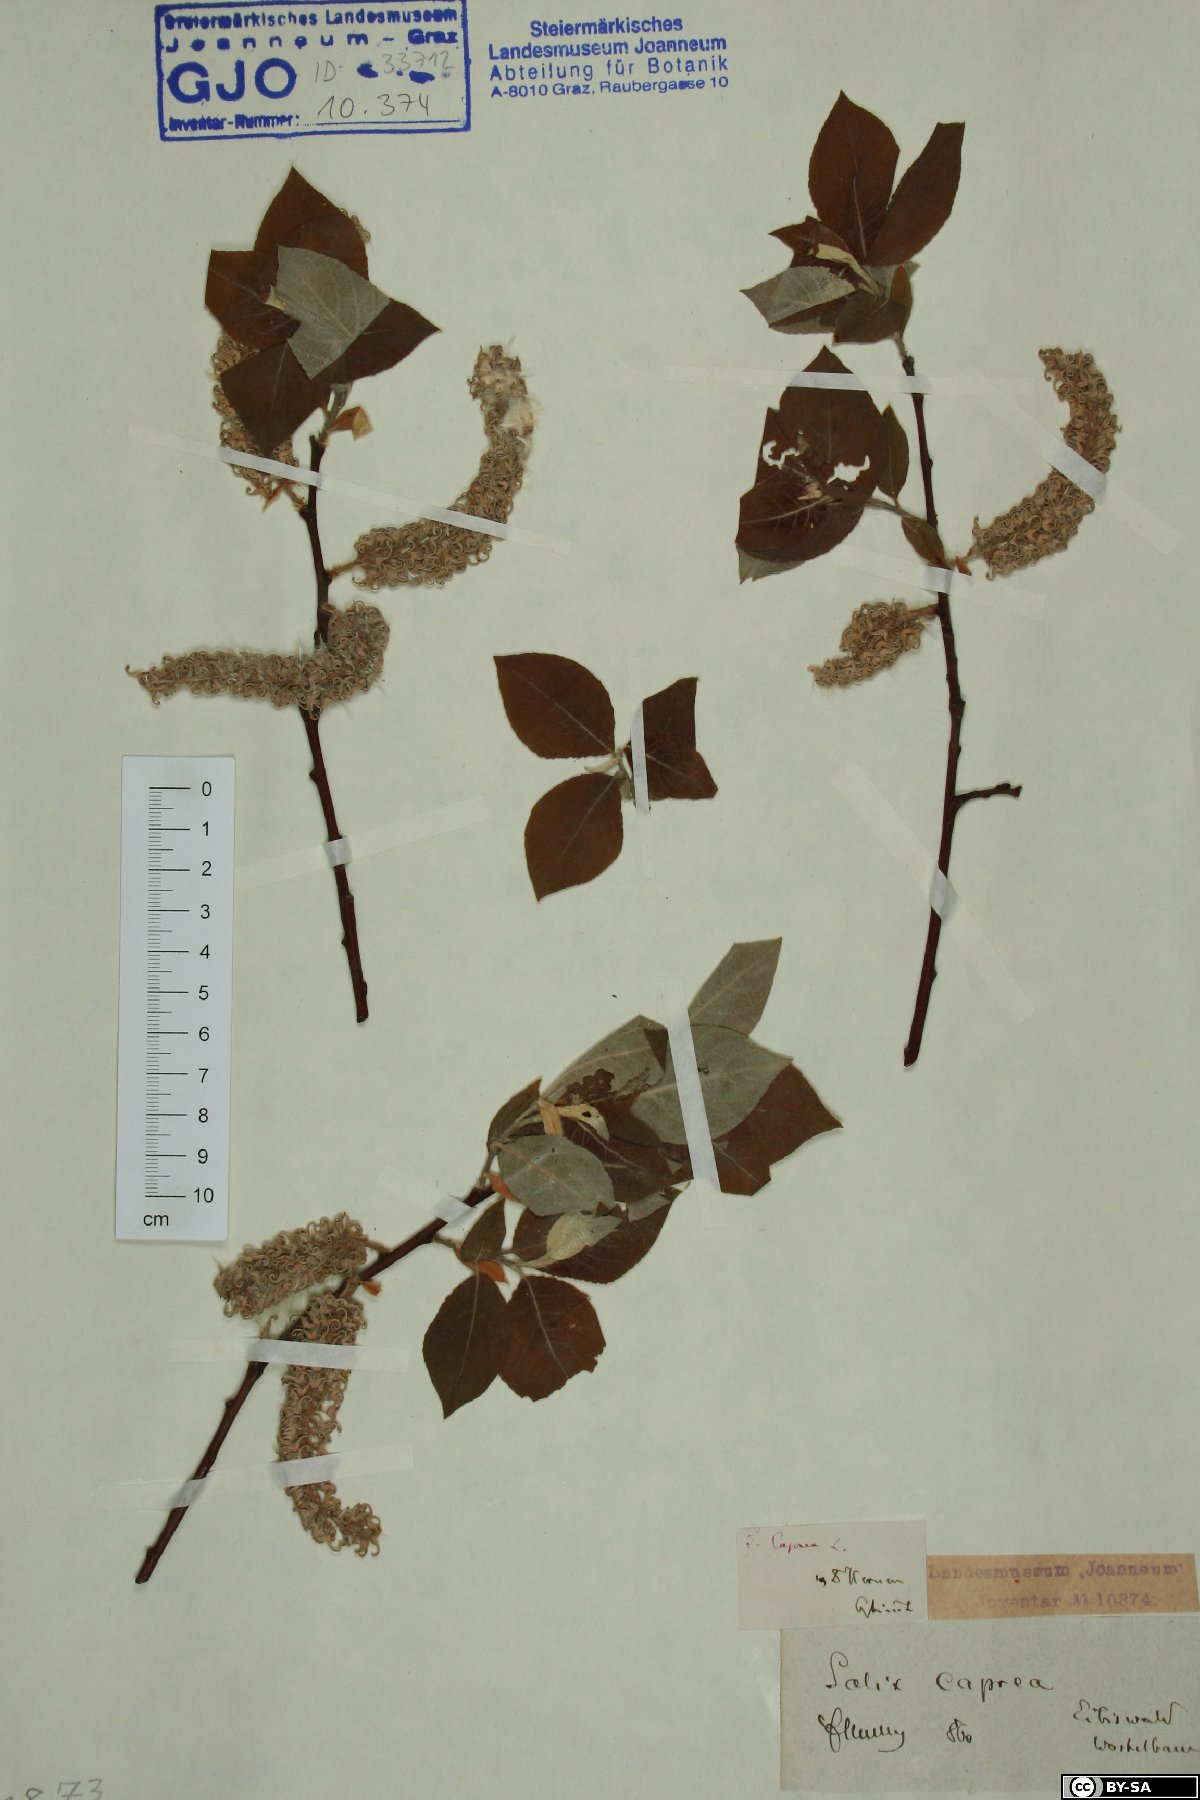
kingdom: Plantae
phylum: Tracheophyta
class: Magnoliopsida
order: Malpighiales
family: Salicaceae
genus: Salix
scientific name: Salix caprea
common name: Goat willow
